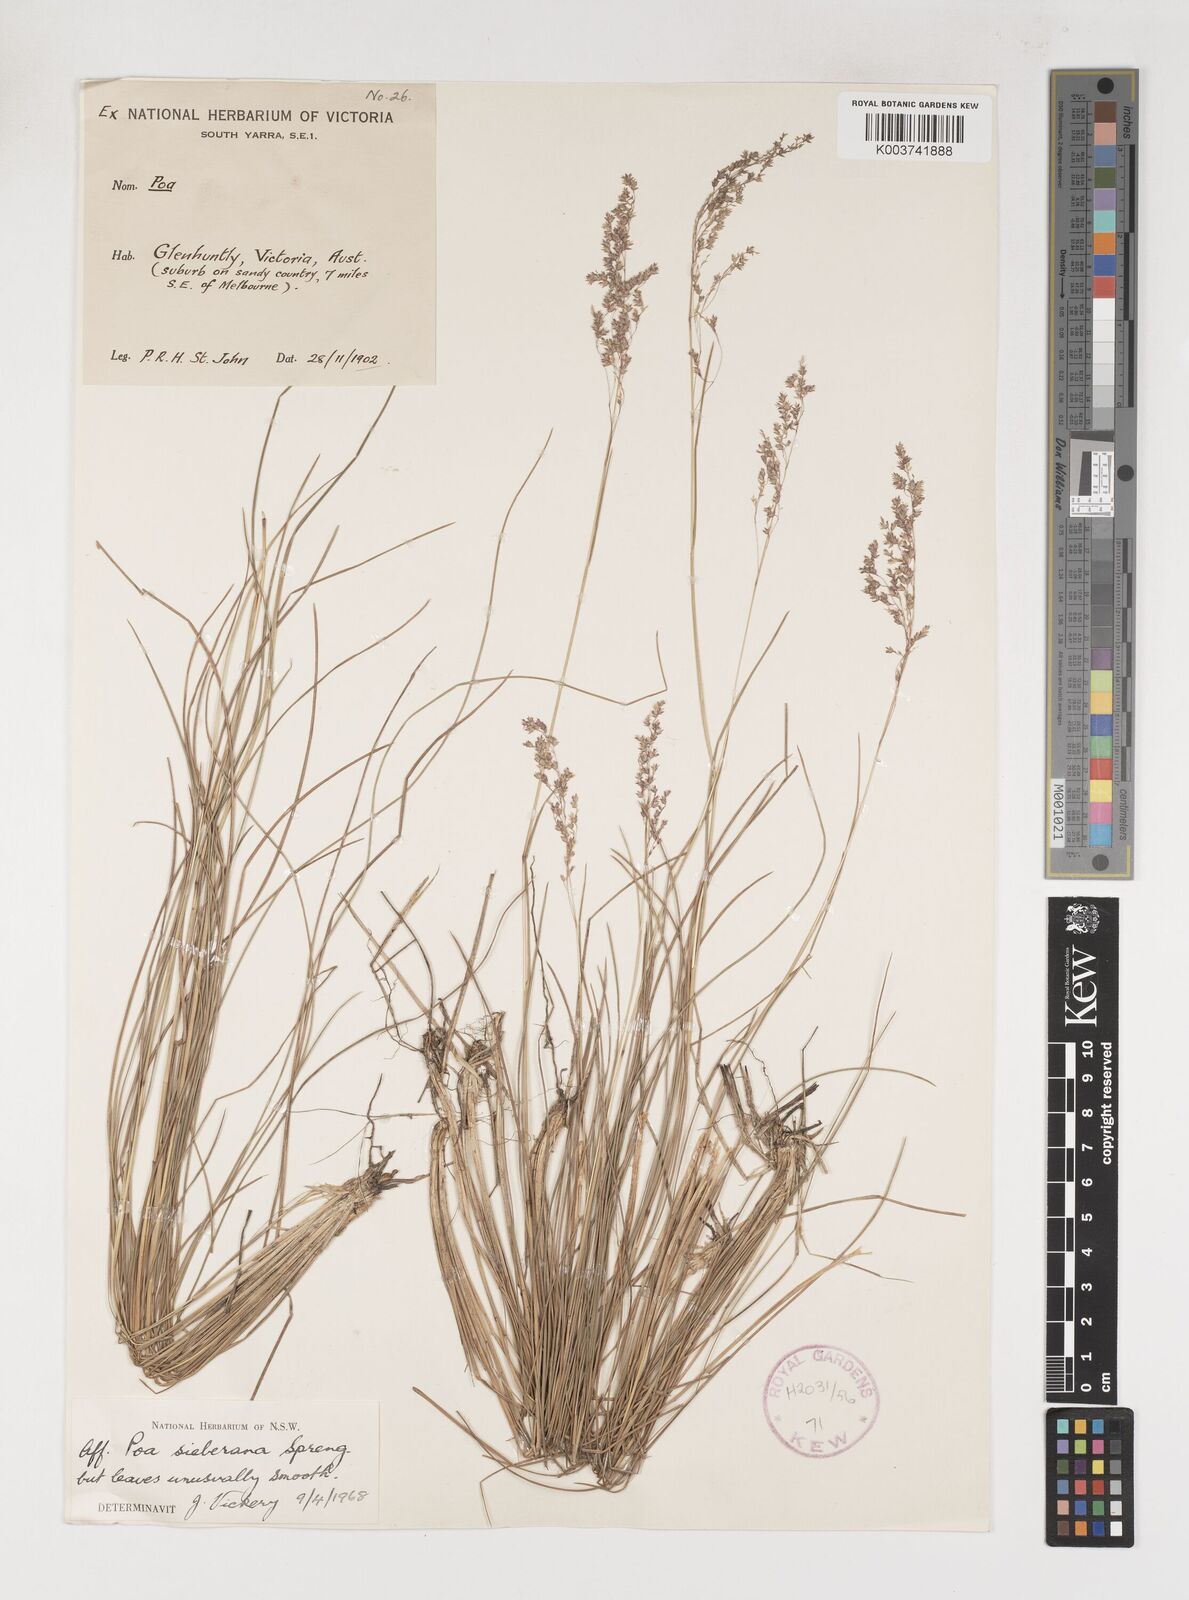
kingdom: Plantae
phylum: Tracheophyta
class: Liliopsida
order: Poales
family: Poaceae
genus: Poa
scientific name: Poa sieberiana
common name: Tussock poa
